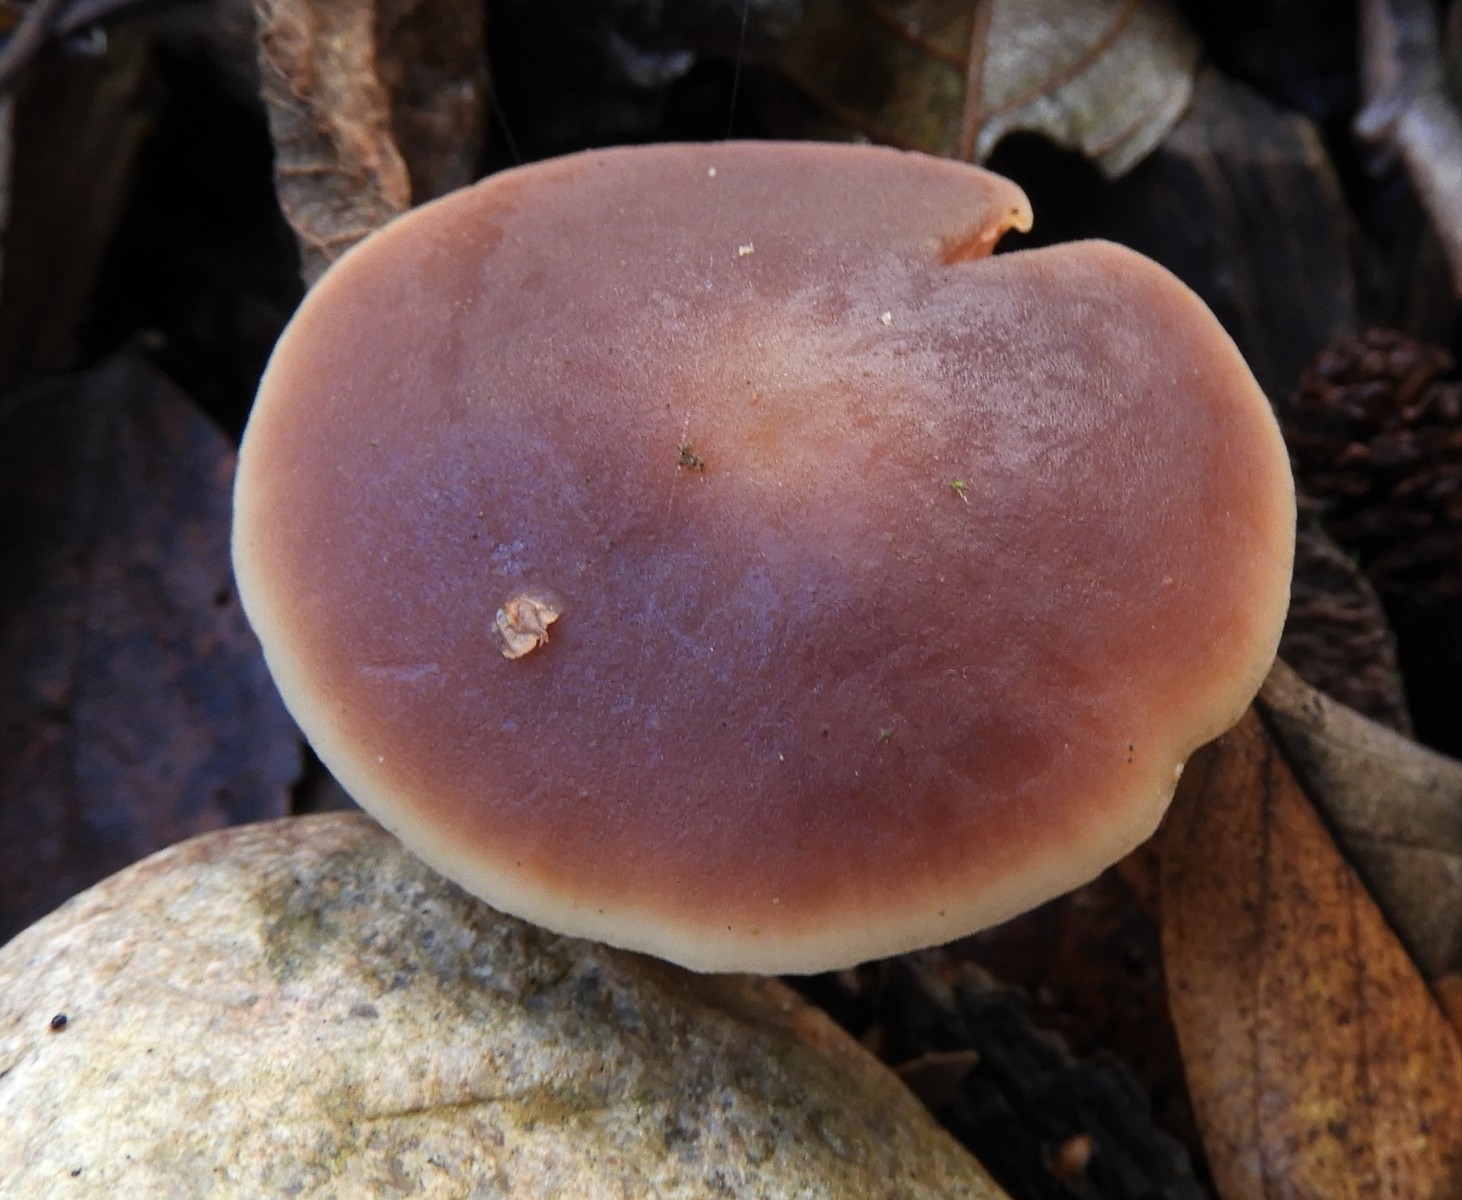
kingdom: Fungi
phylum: Basidiomycota
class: Agaricomycetes
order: Agaricales
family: Macrocystidiaceae
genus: Macrocystidia
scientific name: Macrocystidia cucumis
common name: agurkehat
